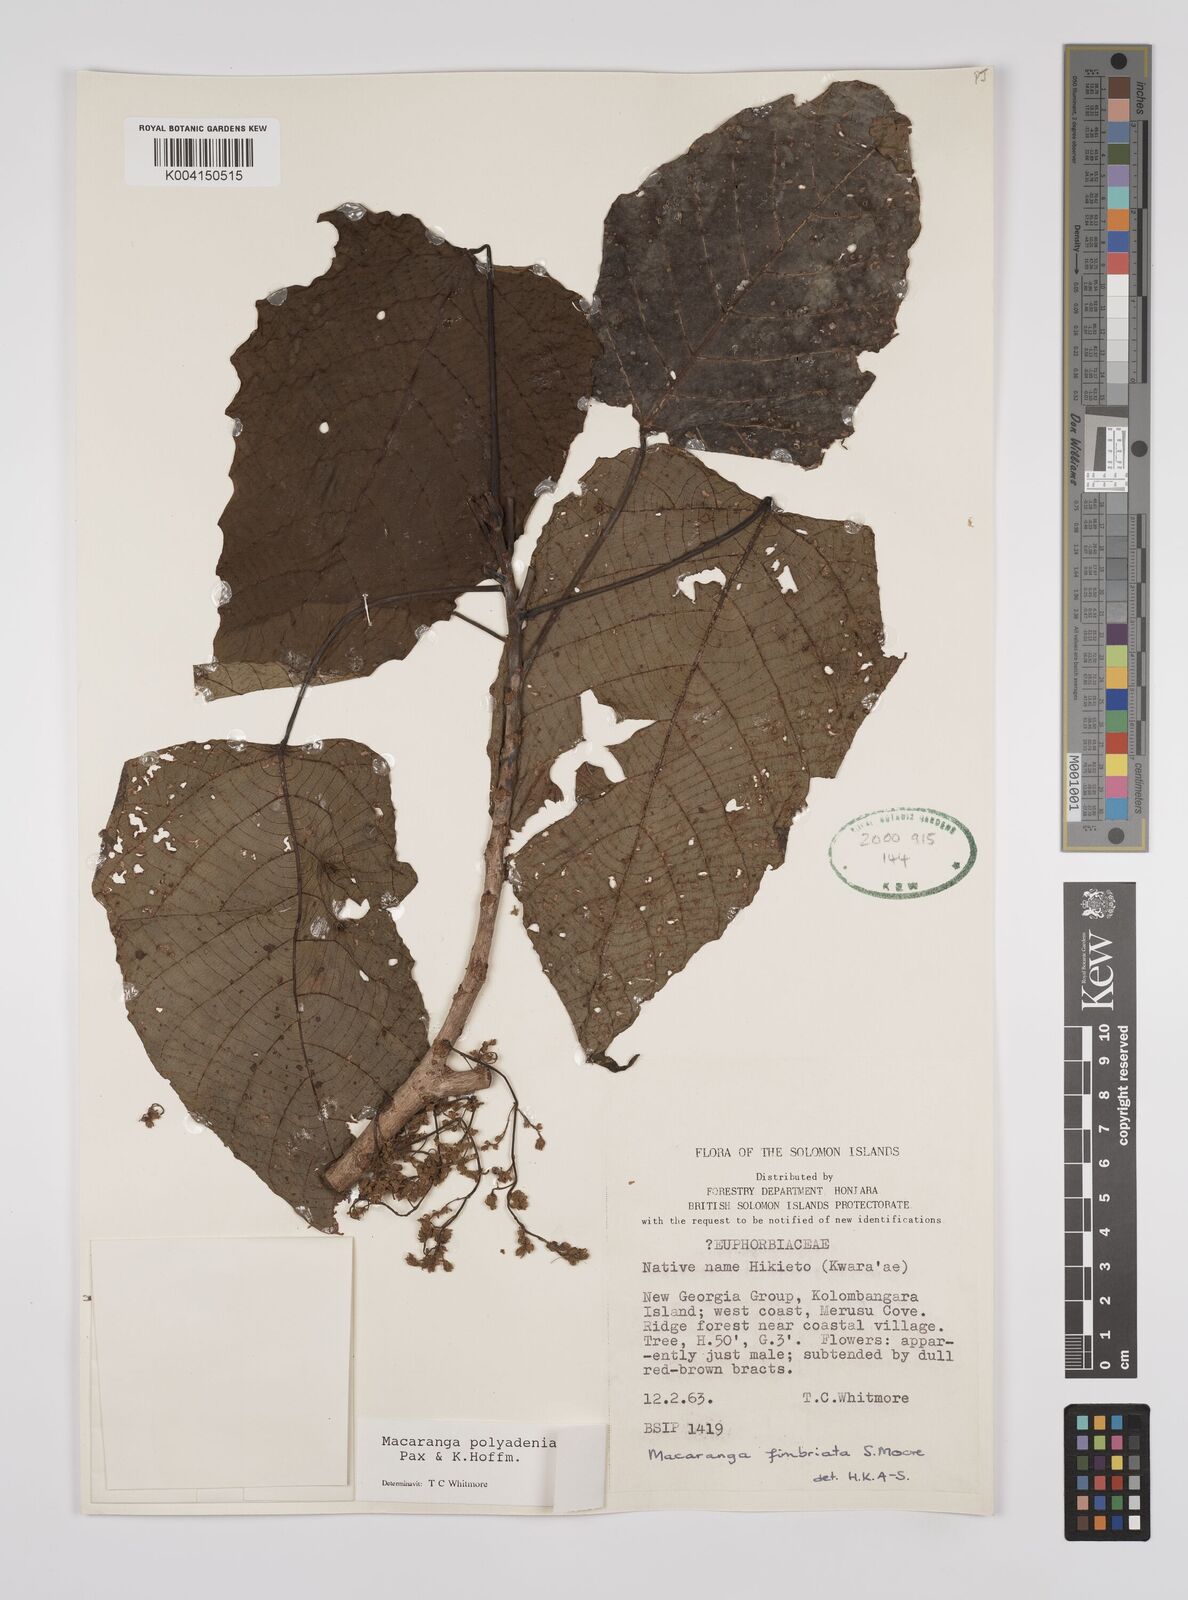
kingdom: Plantae
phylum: Tracheophyta
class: Magnoliopsida
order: Malpighiales
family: Euphorbiaceae
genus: Macaranga
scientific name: Macaranga polyadenia
